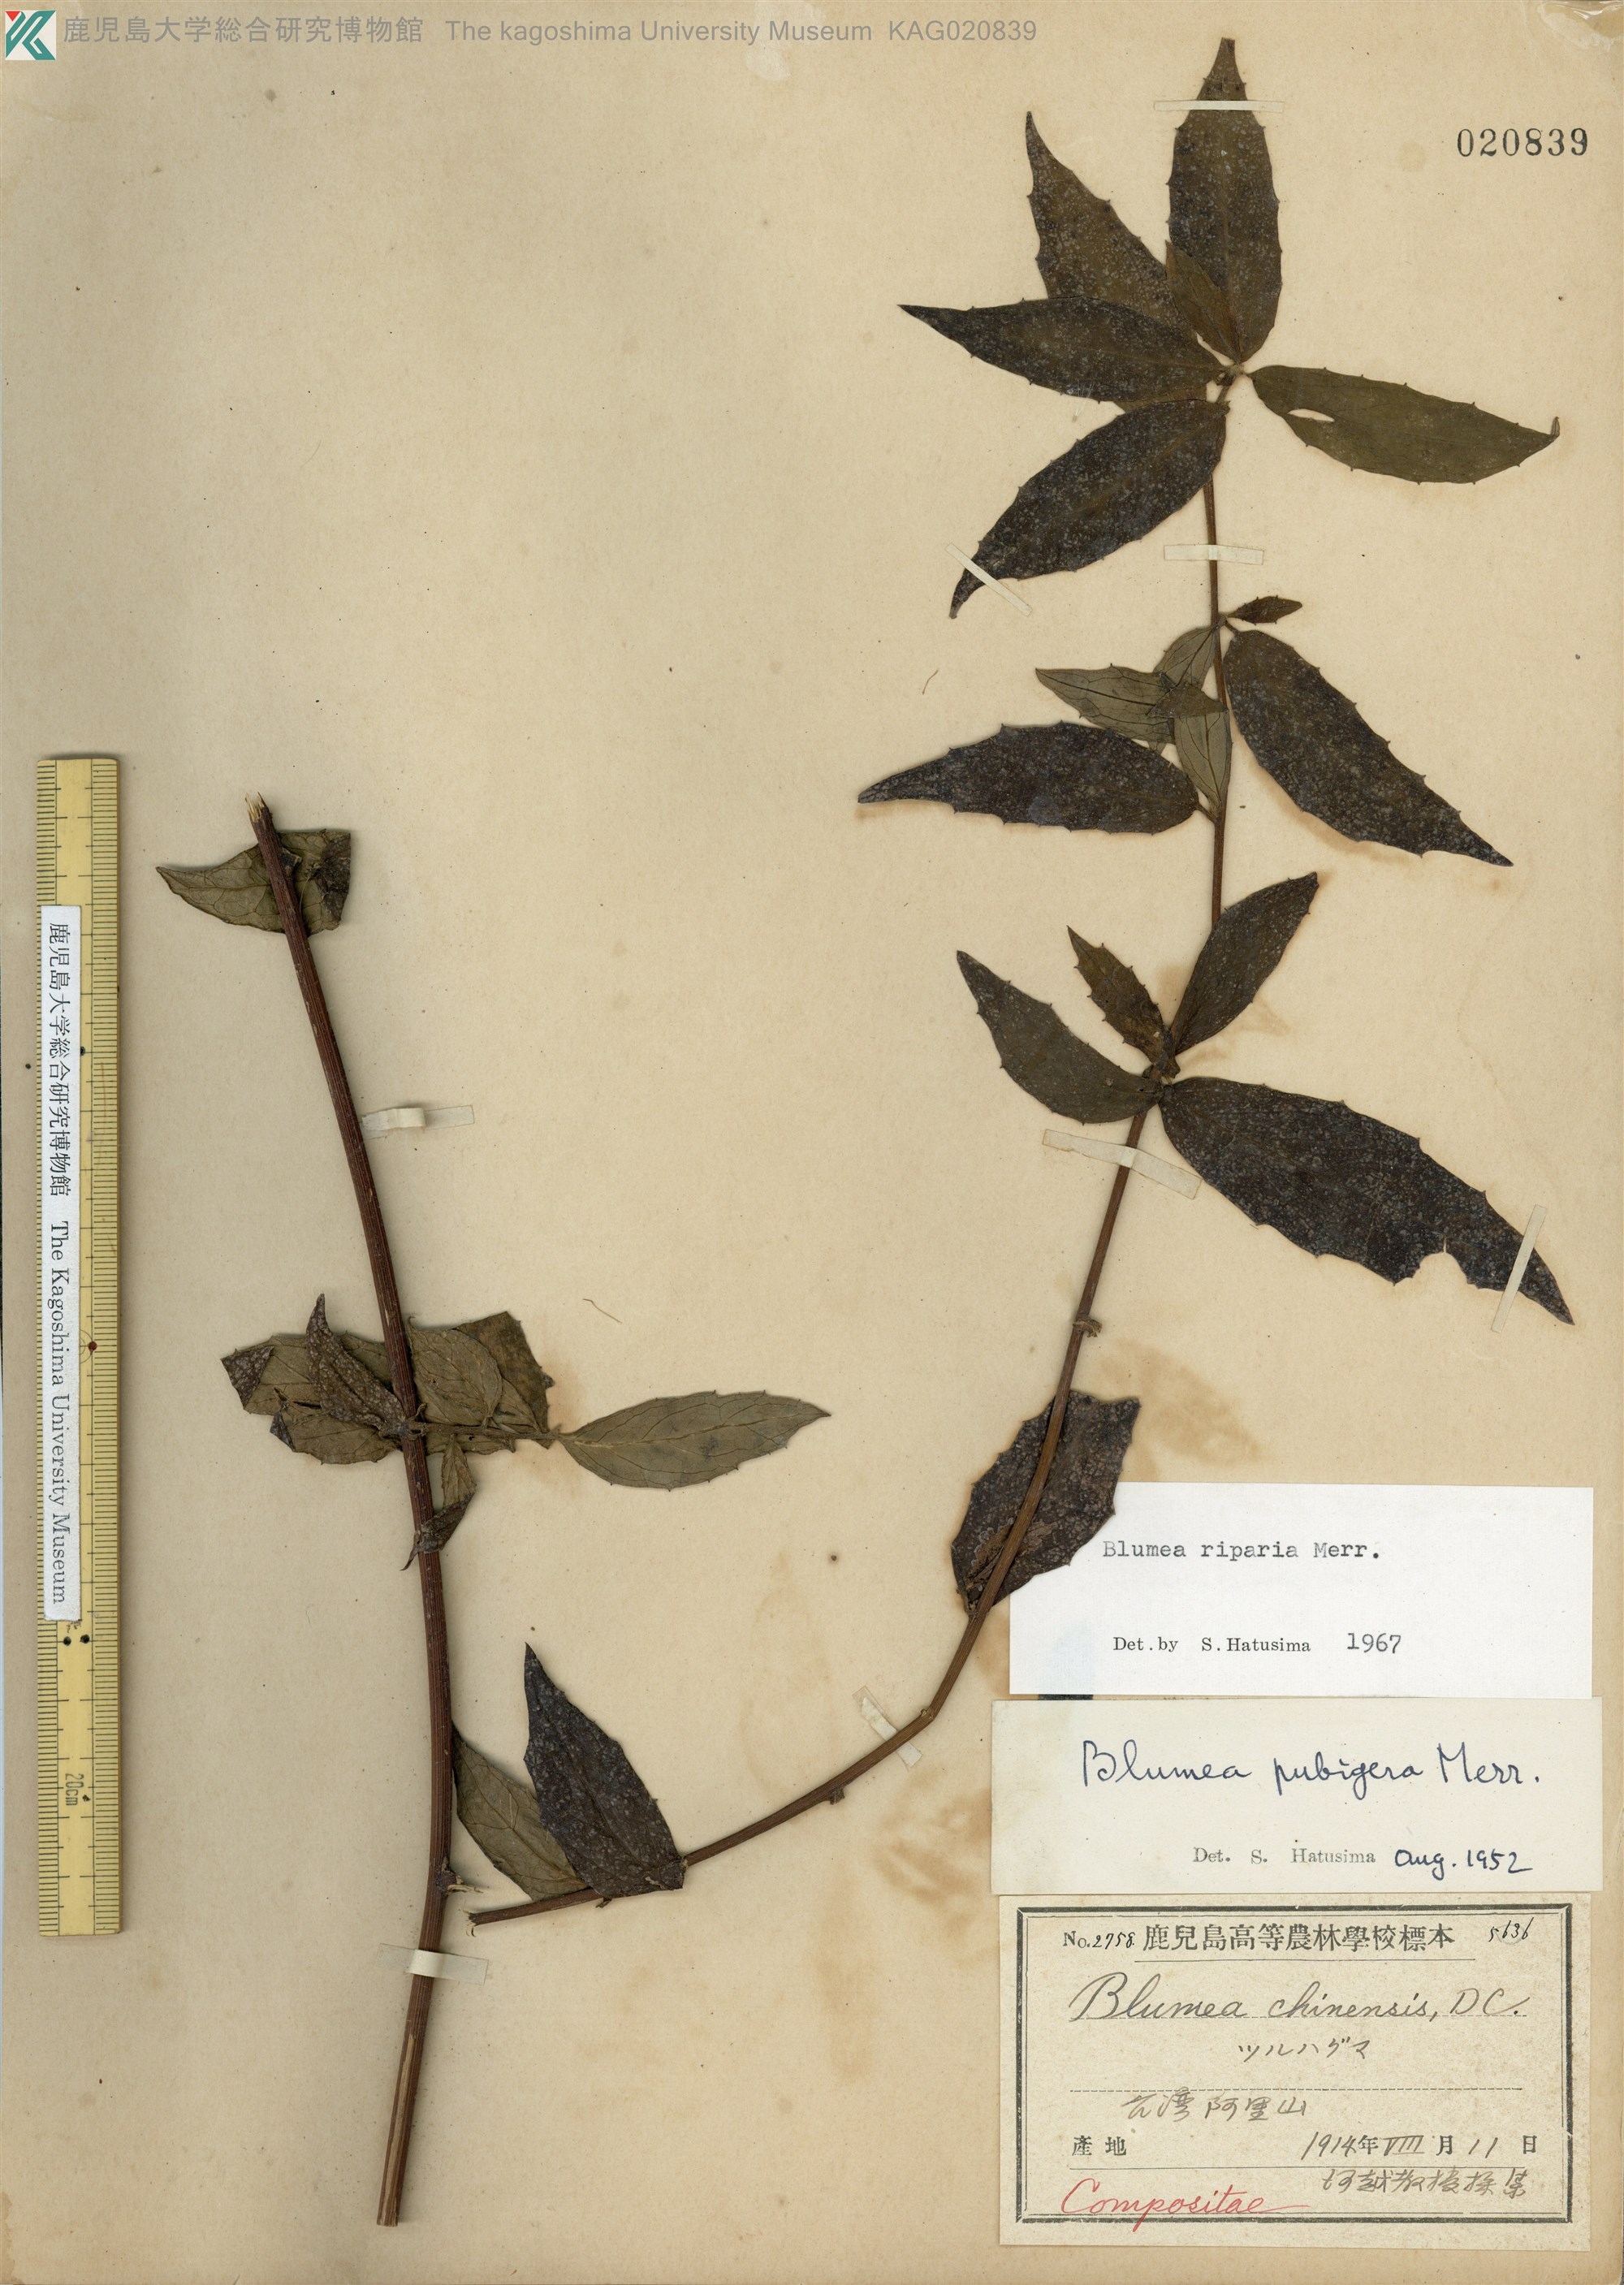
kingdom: Plantae
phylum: Tracheophyta
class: Magnoliopsida
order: Asterales
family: Asteraceae
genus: Blumea
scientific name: Blumea megacephala
